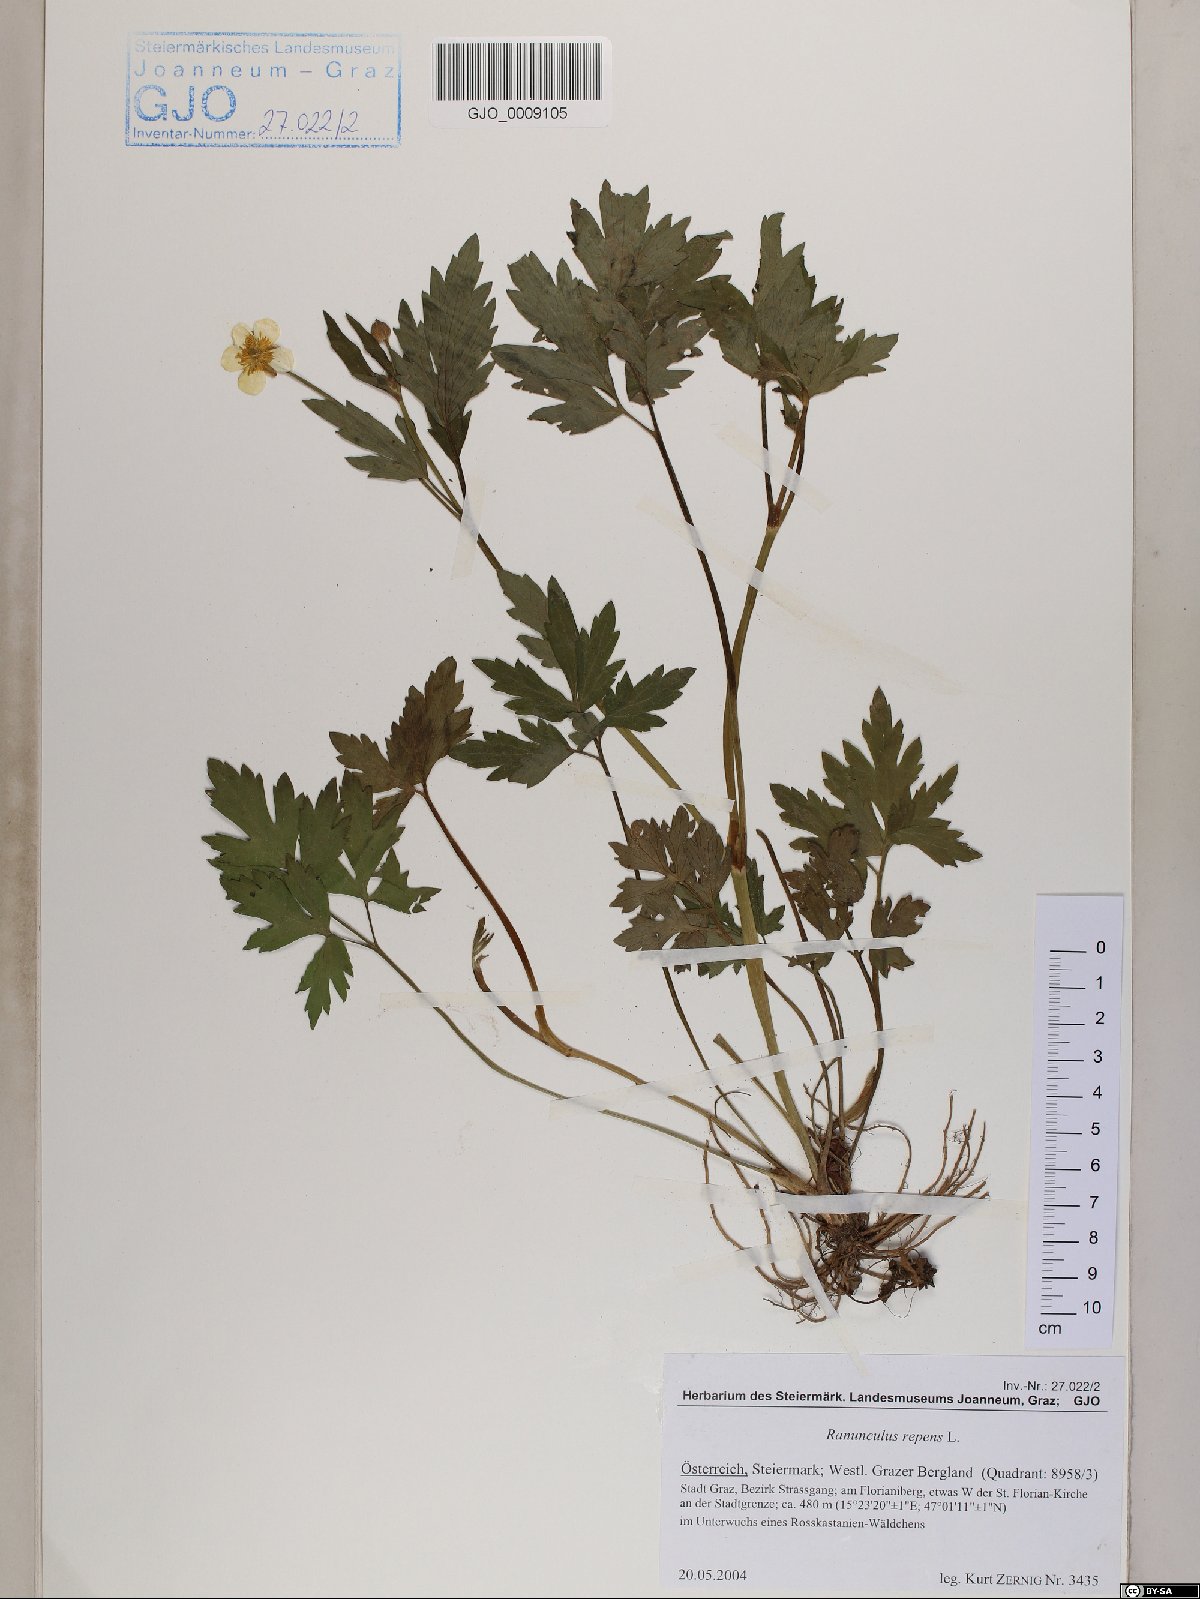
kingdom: Plantae
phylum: Tracheophyta
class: Magnoliopsida
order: Ranunculales
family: Ranunculaceae
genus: Ranunculus
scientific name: Ranunculus repens
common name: Creeping buttercup
